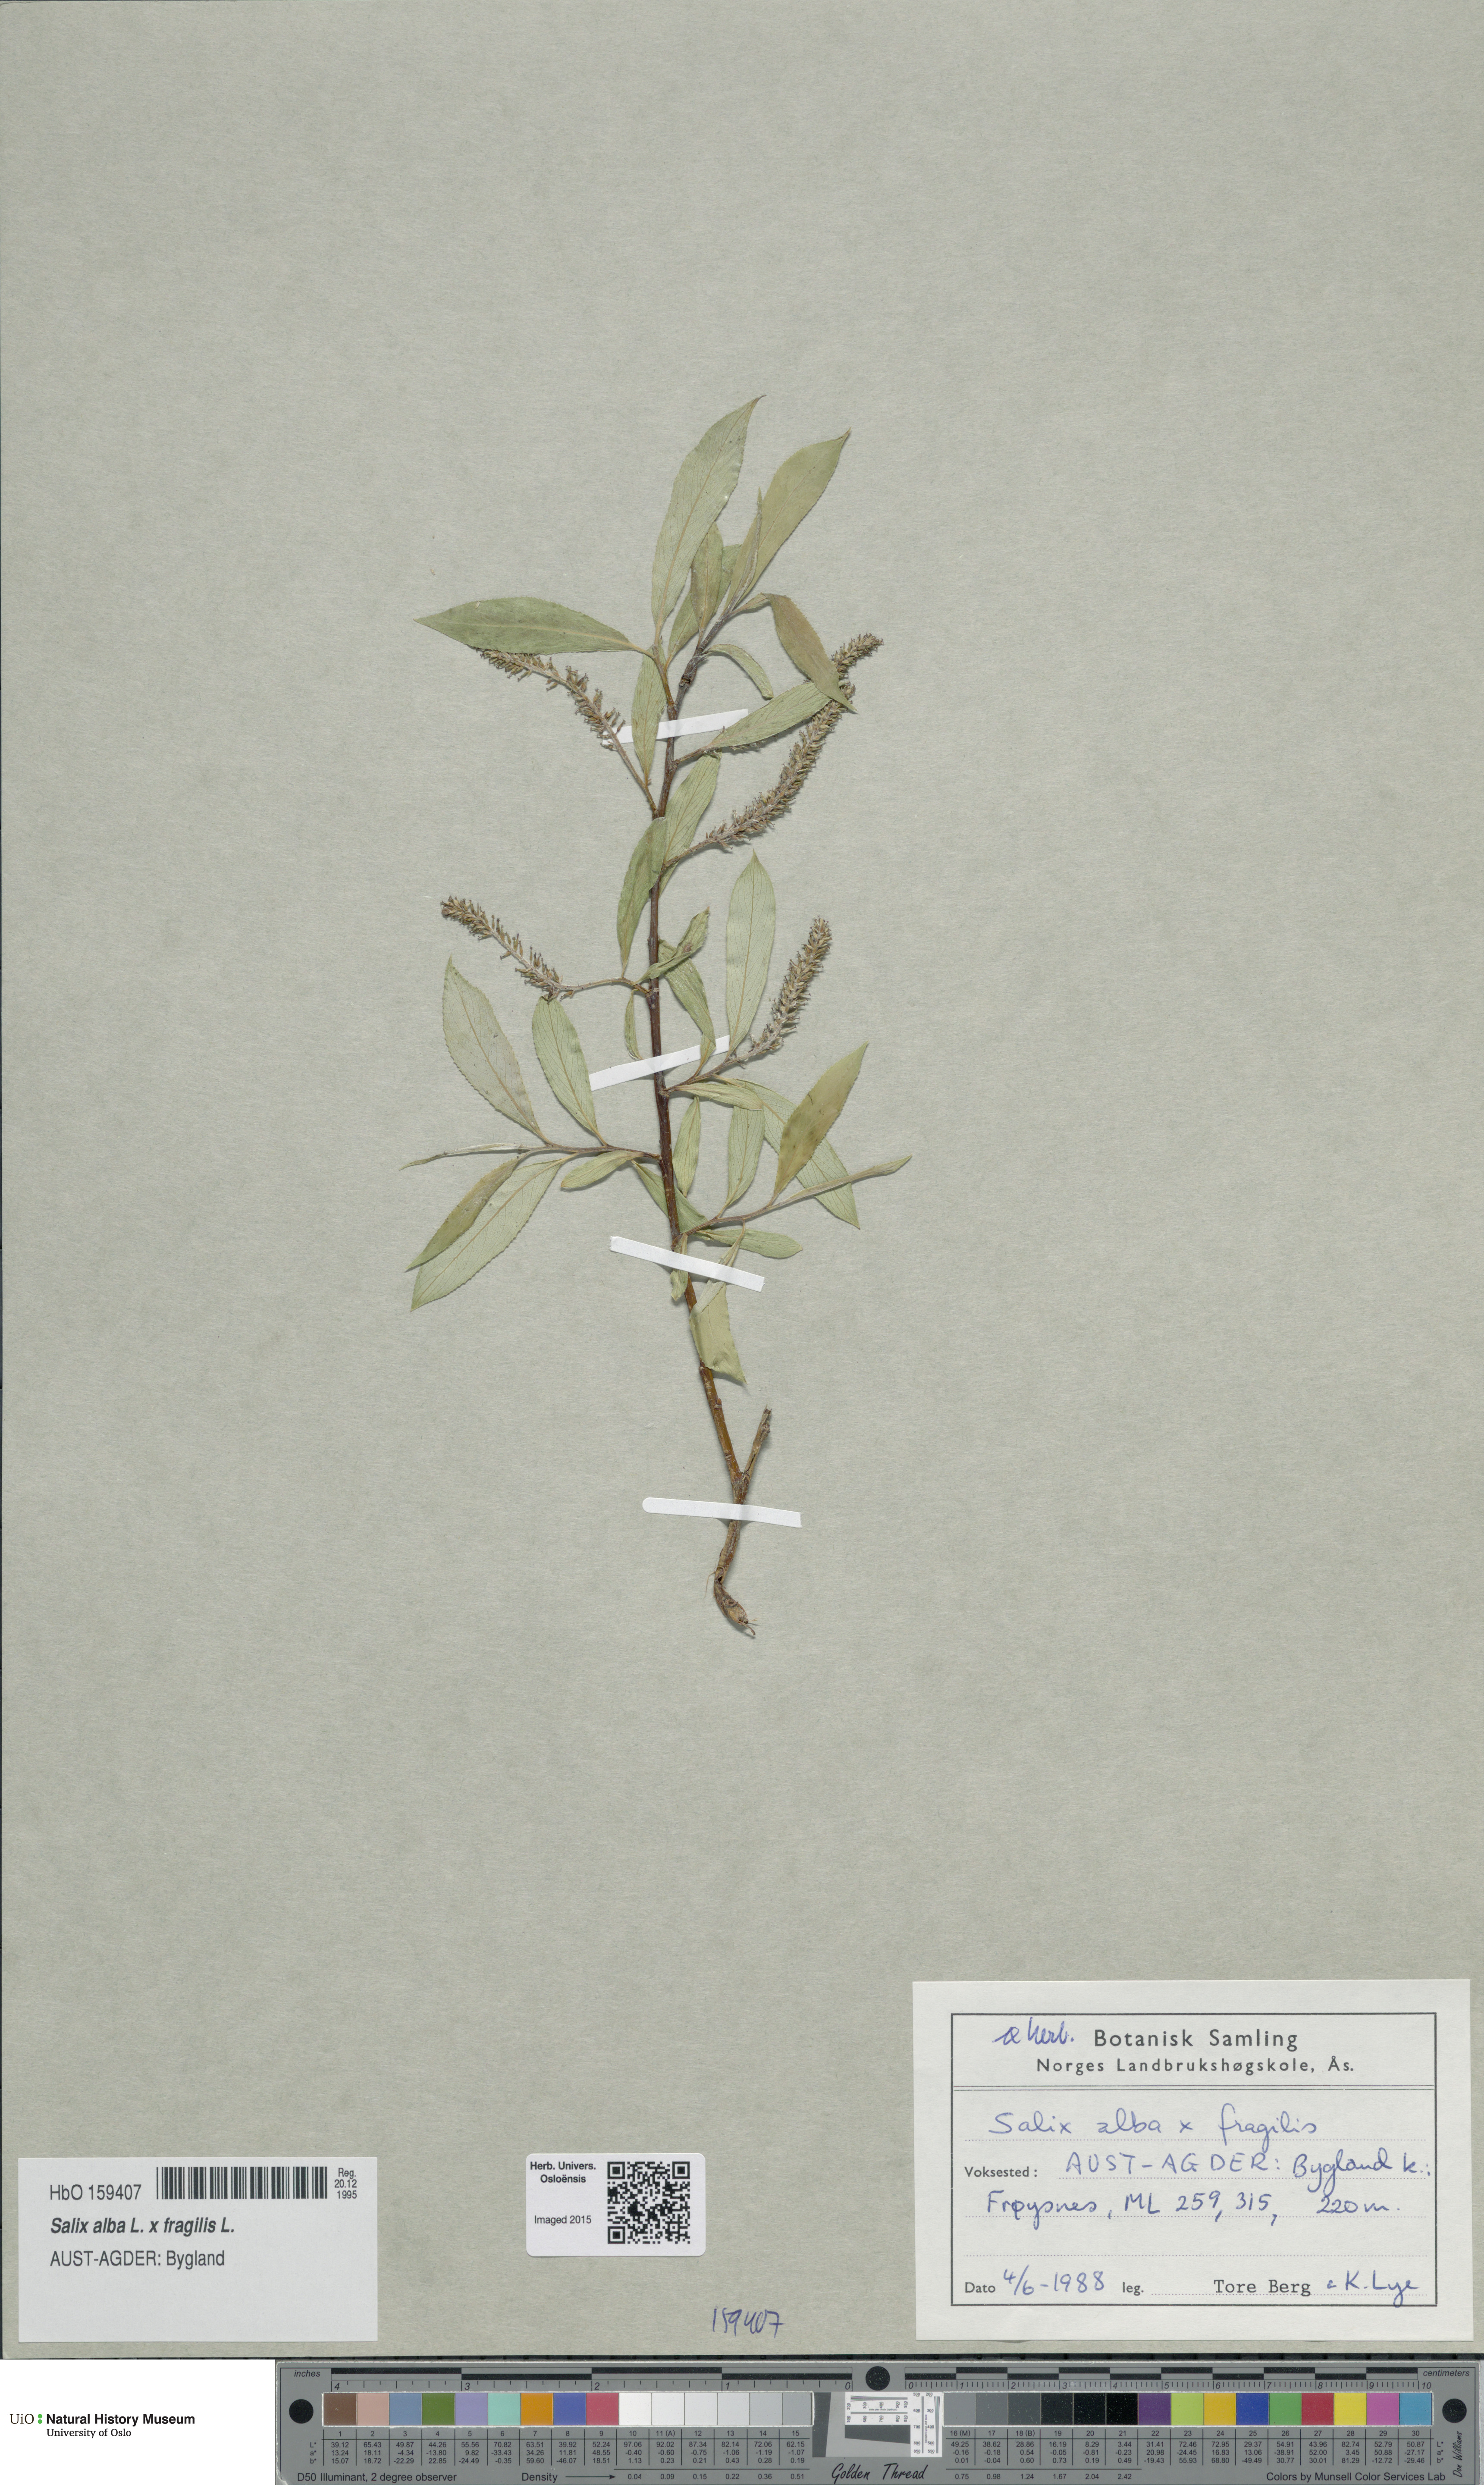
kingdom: Plantae
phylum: Tracheophyta
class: Magnoliopsida
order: Malpighiales
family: Salicaceae
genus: Salix
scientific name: Salix
